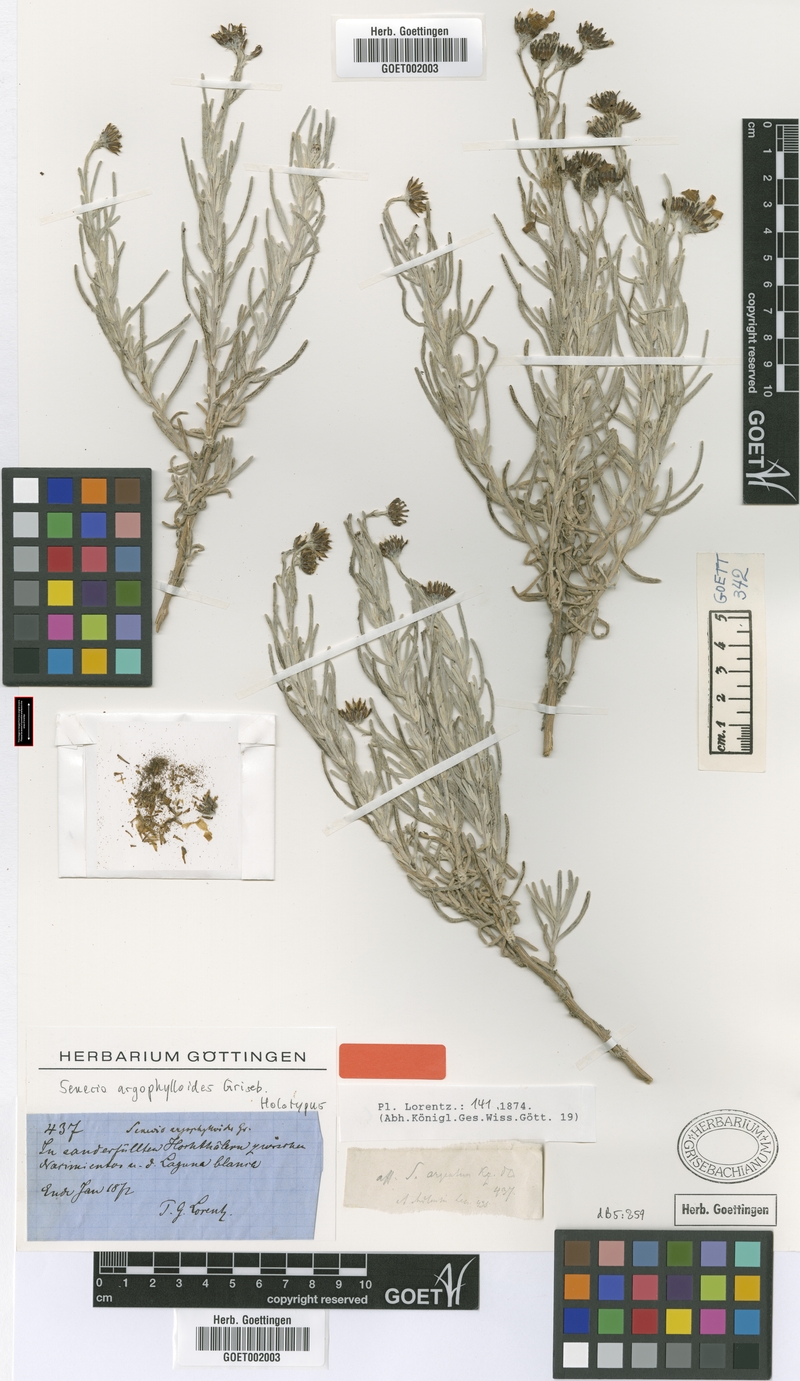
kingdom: Plantae
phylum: Tracheophyta
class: Magnoliopsida
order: Asterales
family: Asteraceae
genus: Senecio
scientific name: Senecio argophylloides
